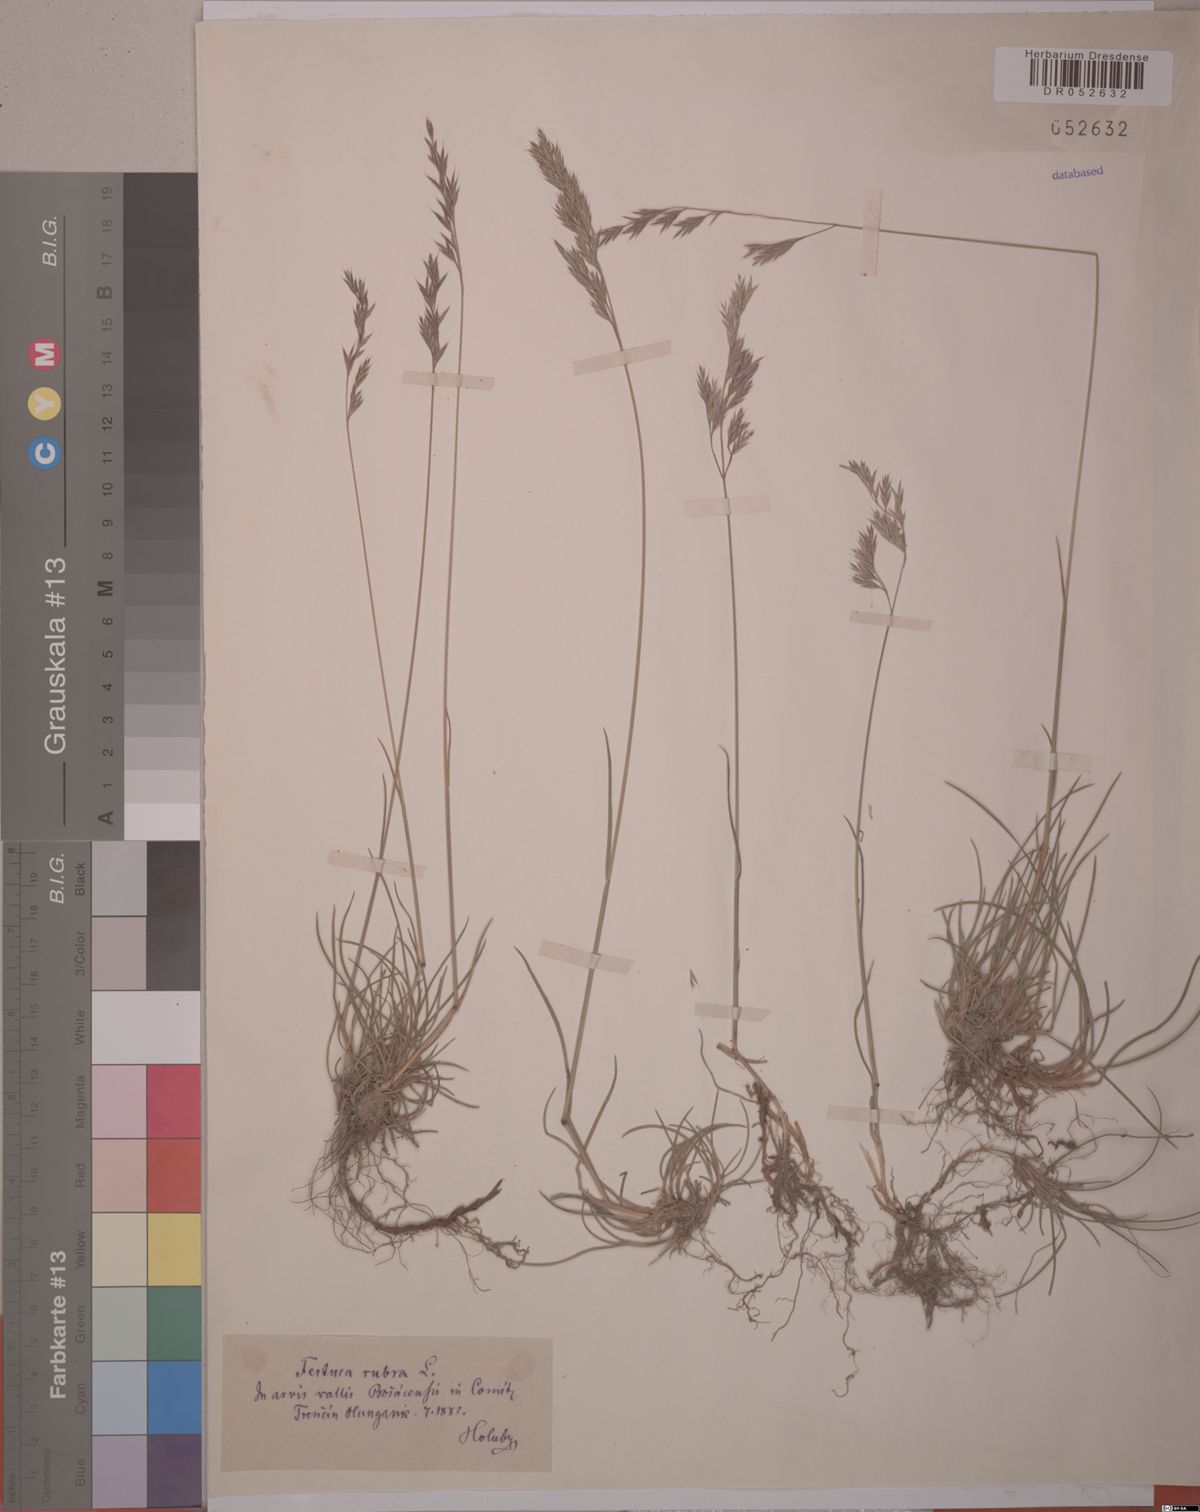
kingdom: Plantae
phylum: Tracheophyta
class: Liliopsida
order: Poales
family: Poaceae
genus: Festuca
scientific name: Festuca rubra
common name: Red fescue
